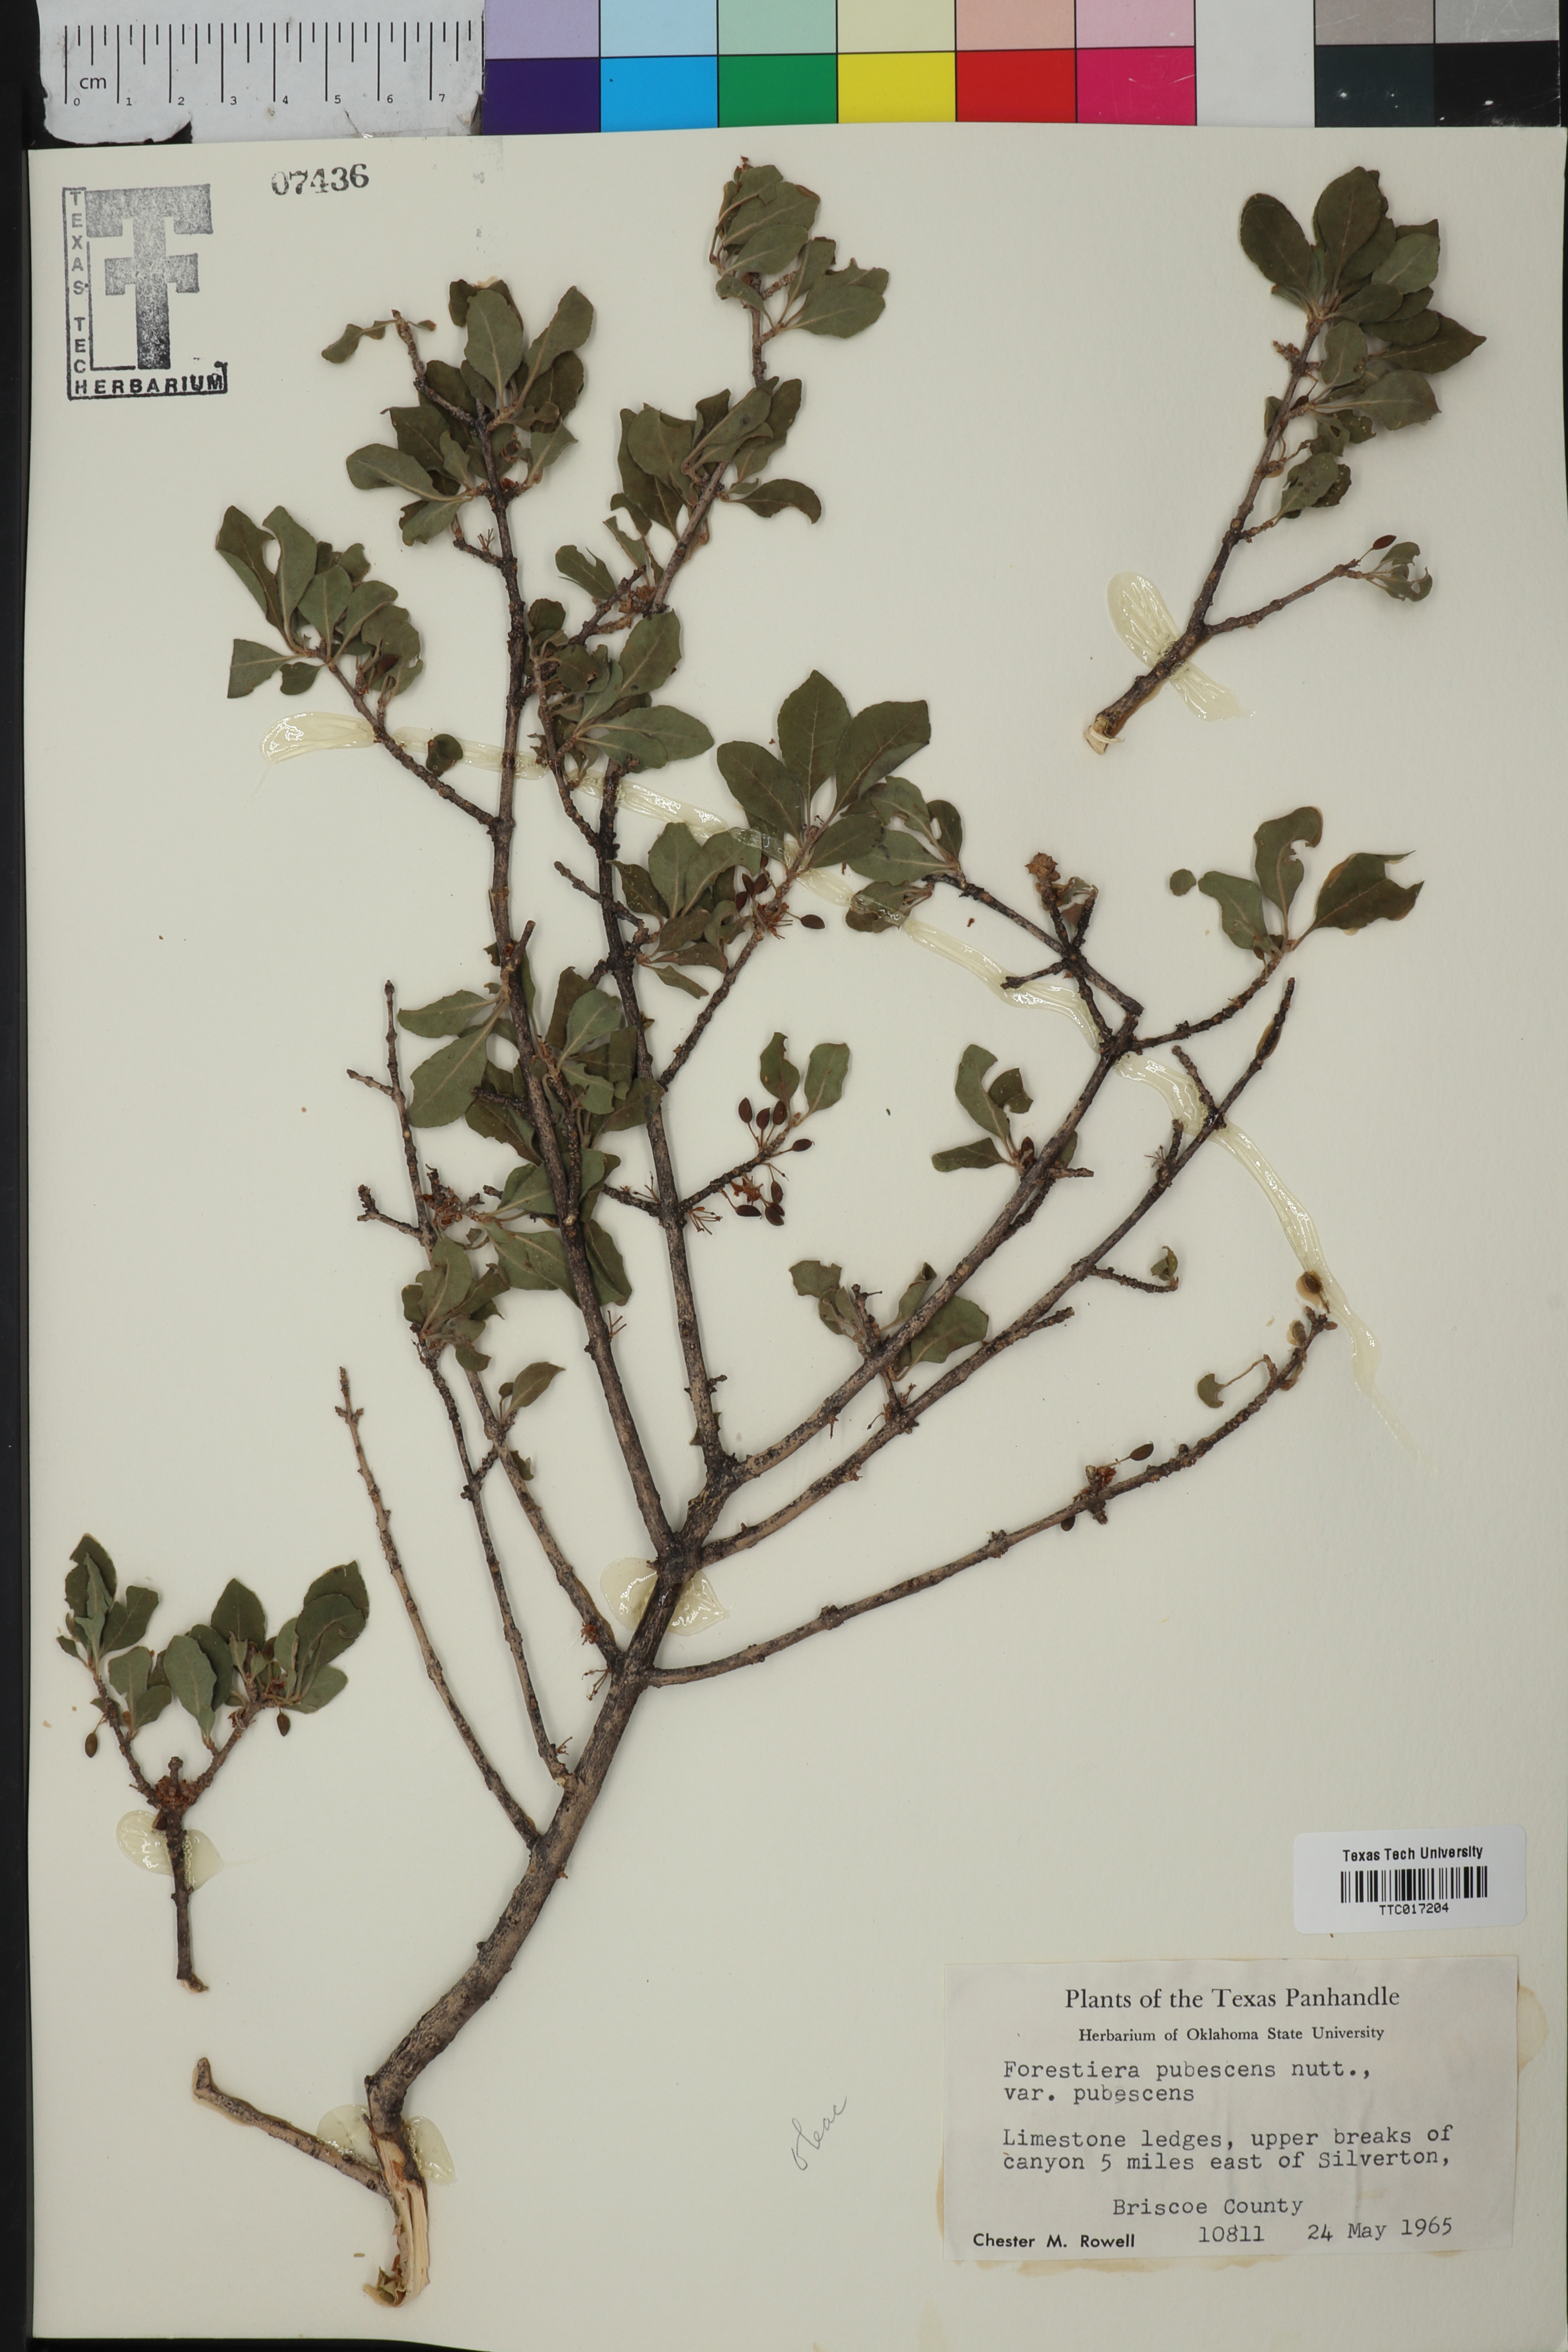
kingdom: Plantae
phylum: Tracheophyta
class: Magnoliopsida
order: Lamiales
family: Oleaceae
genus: Forestiera
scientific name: Forestiera pubescens
